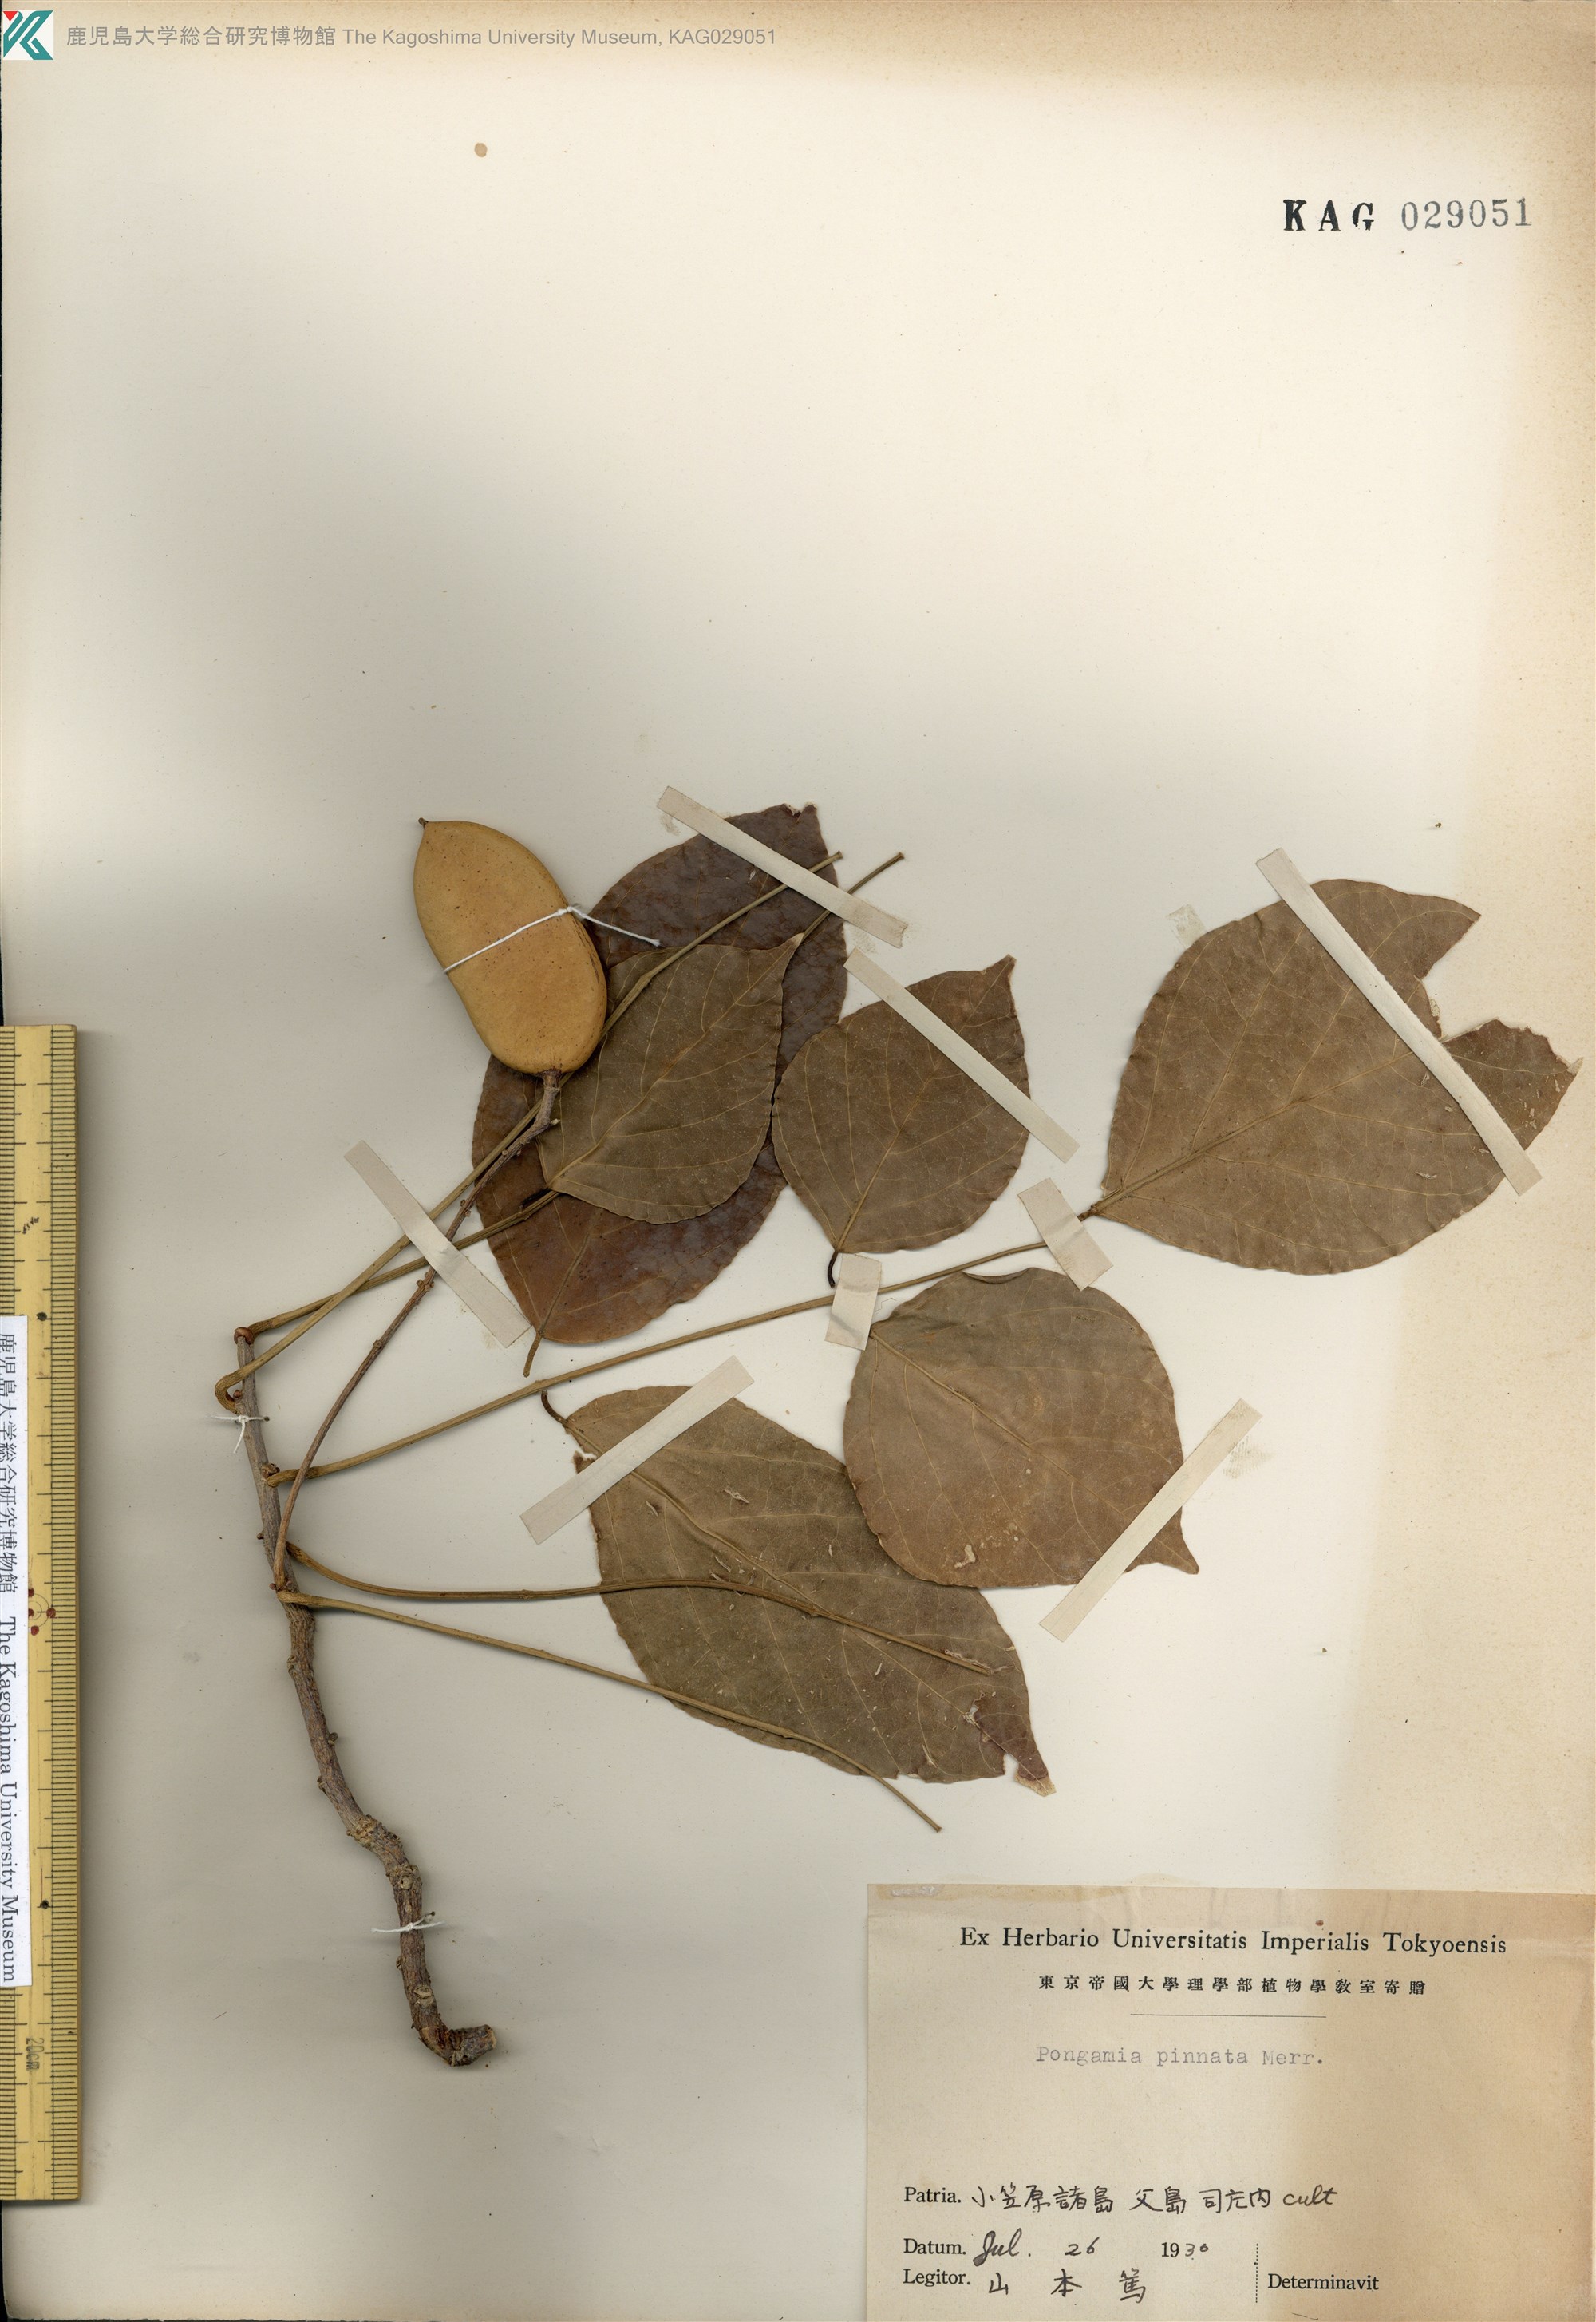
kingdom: Plantae
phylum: Tracheophyta
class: Magnoliopsida
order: Fabales
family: Fabaceae
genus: Pongamia
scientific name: Pongamia pinnata
